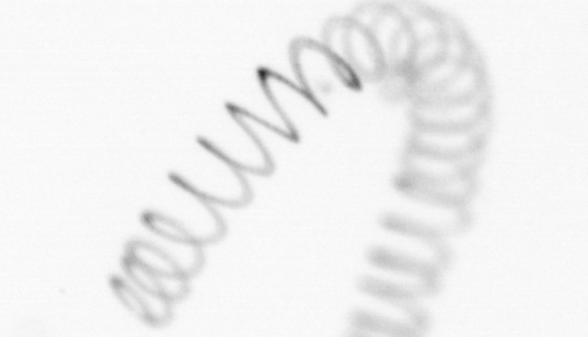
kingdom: Animalia
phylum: Arthropoda
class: Copepoda
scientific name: Copepoda
